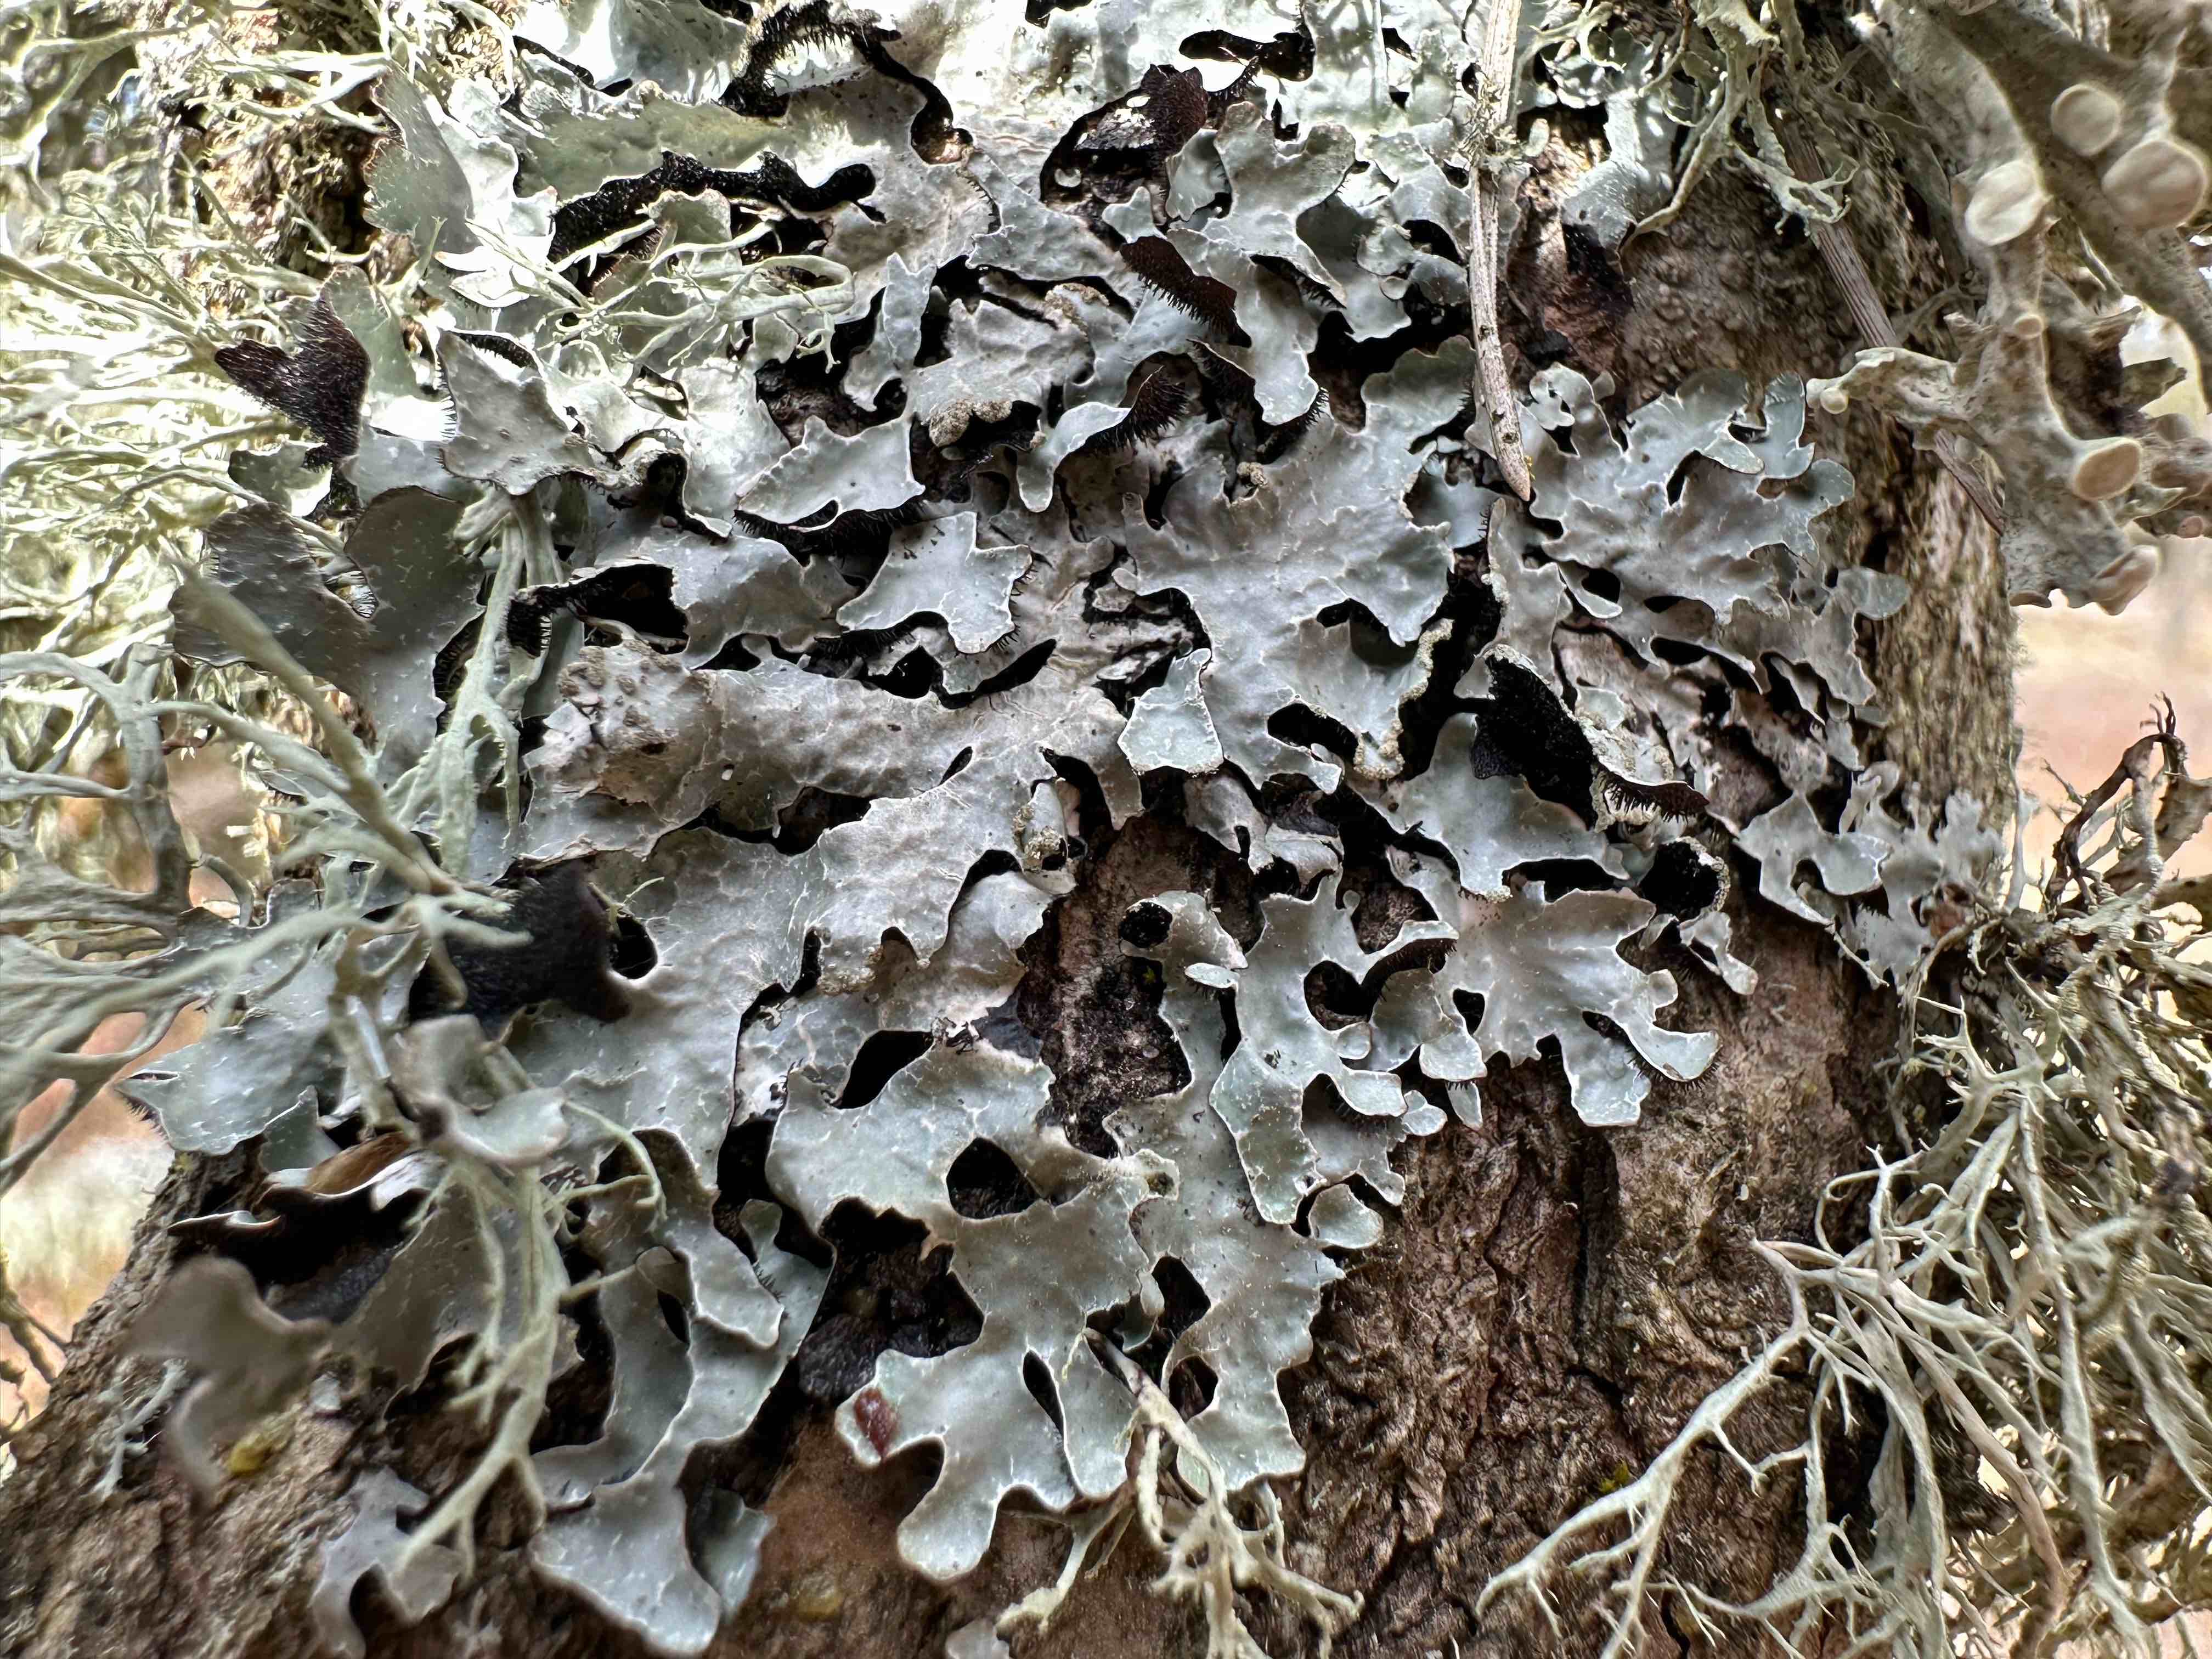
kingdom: Fungi
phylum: Ascomycota
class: Lecanoromycetes
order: Lecanorales
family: Parmeliaceae
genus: Parmelia
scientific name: Parmelia sulcata
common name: rynket skållav
